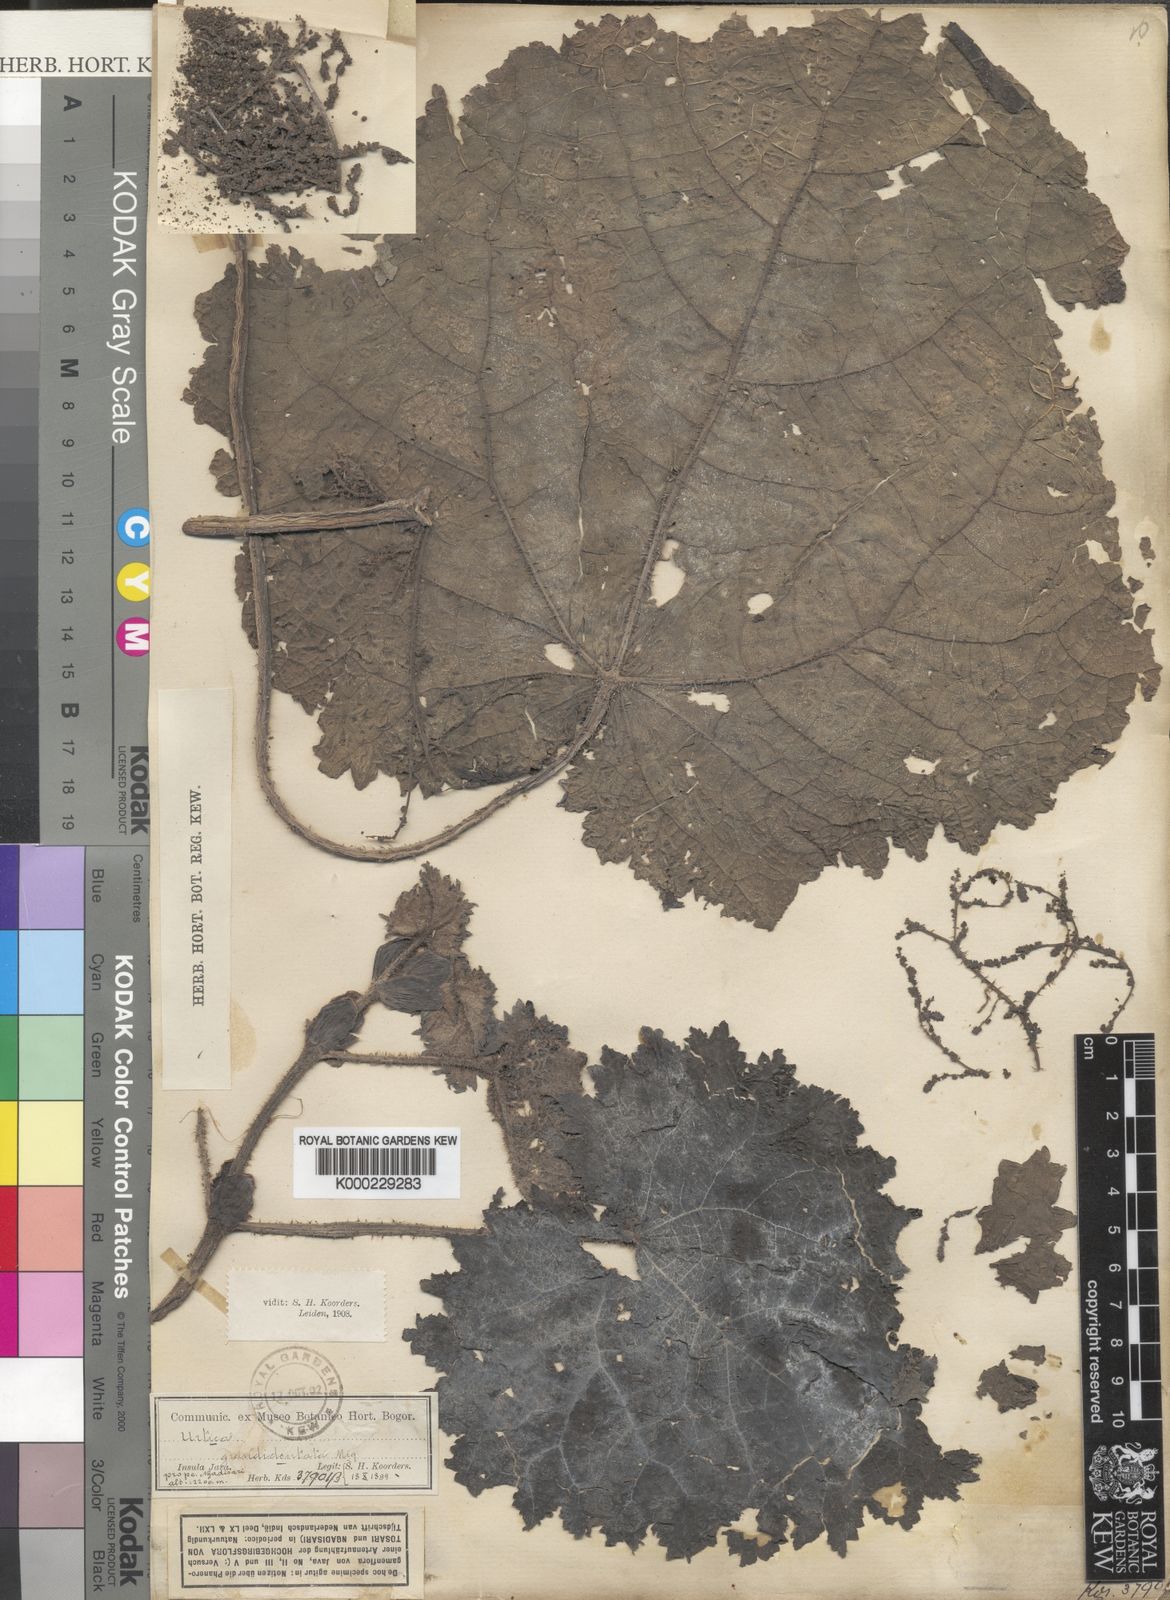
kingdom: Plantae
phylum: Tracheophyta
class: Magnoliopsida
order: Rosales
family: Urticaceae
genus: Urtica
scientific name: Urtica grandidentata
